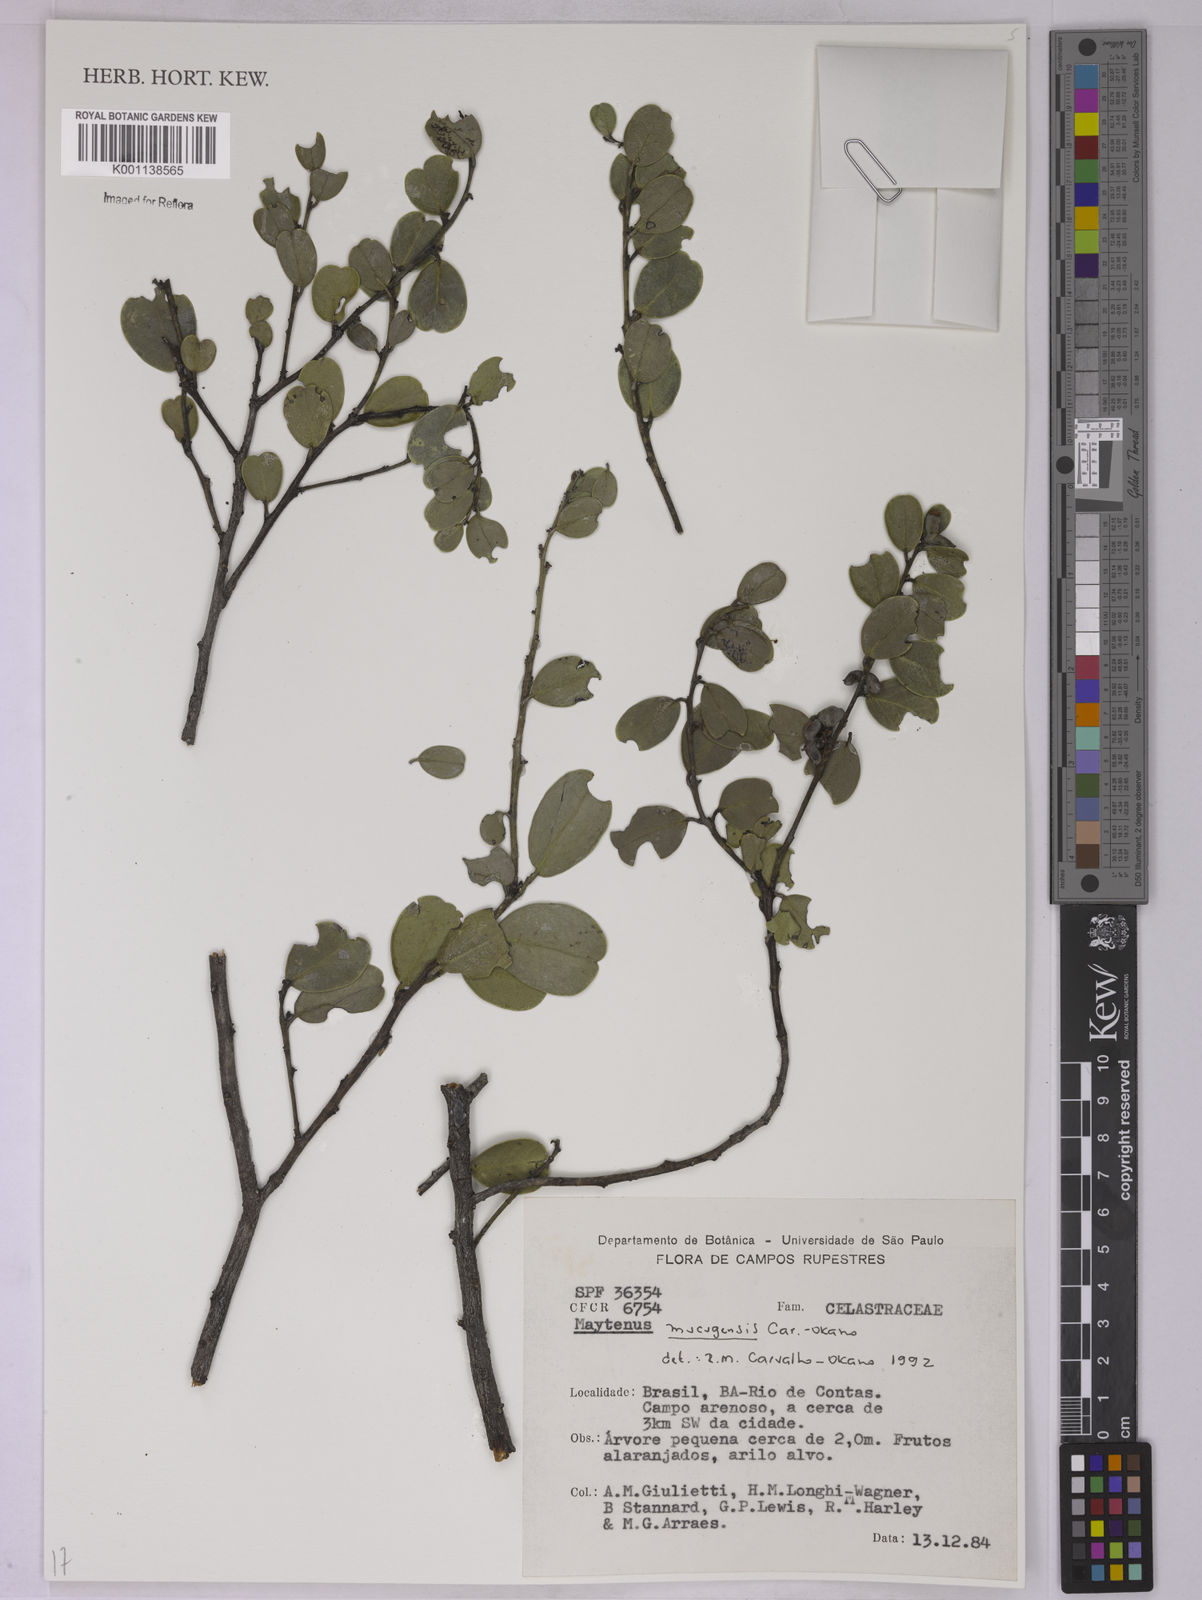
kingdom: Plantae
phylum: Tracheophyta
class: Magnoliopsida
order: Celastrales
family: Celastraceae
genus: Monteverdia
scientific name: Monteverdia mucugensis
